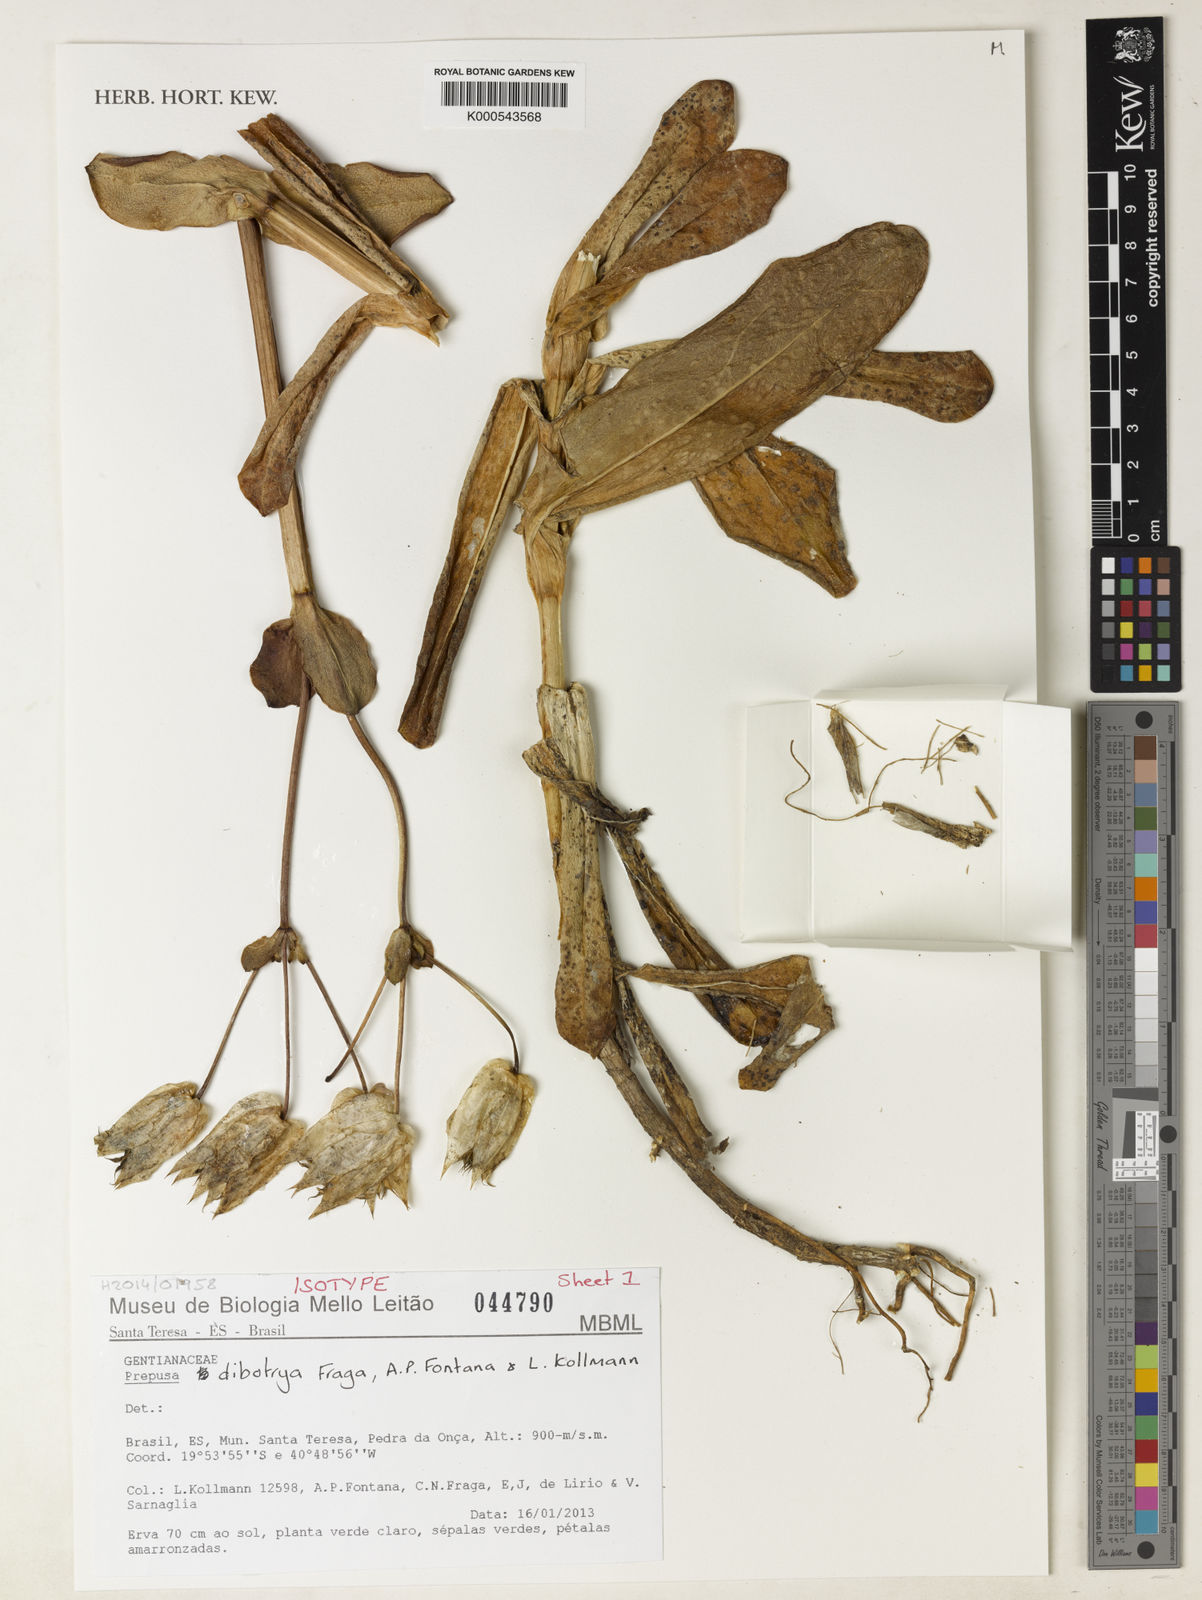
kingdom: Plantae
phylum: Tracheophyta
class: Magnoliopsida
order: Gentianales
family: Gentianaceae
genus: Prepusa
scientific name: Prepusa dibotrya
